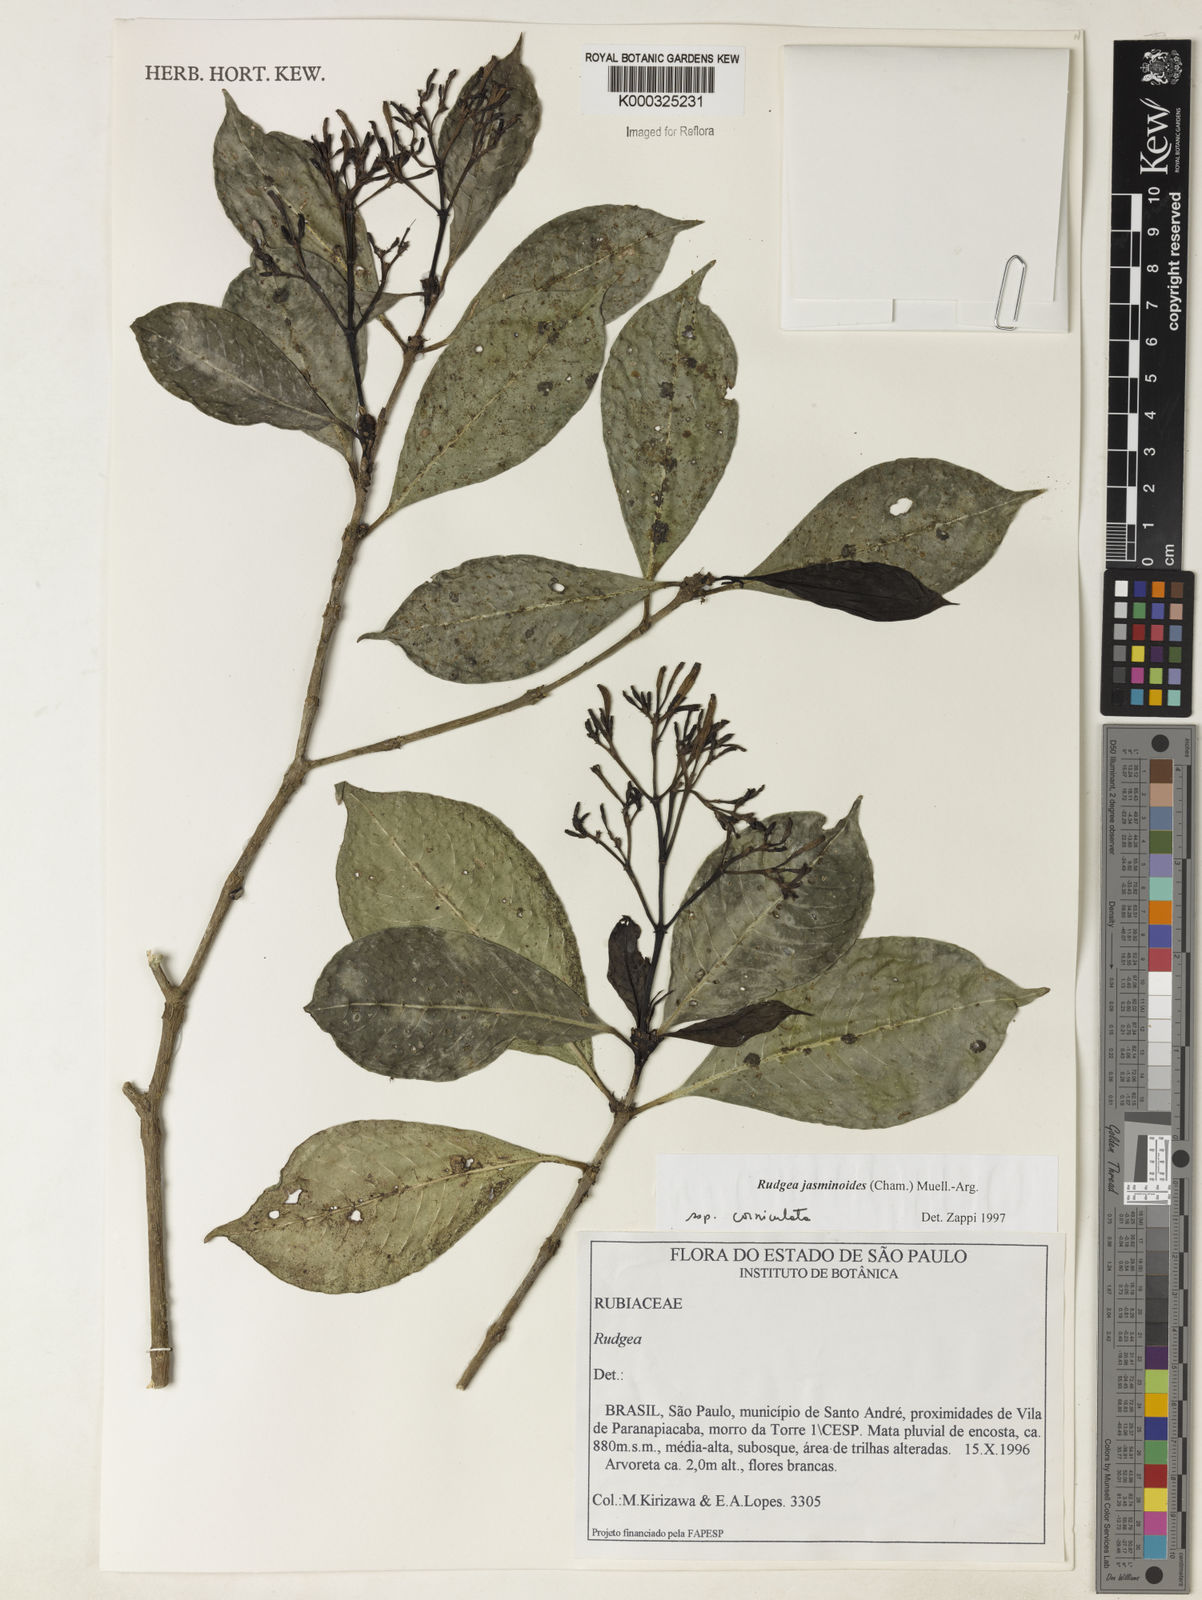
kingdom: Plantae
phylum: Tracheophyta
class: Magnoliopsida
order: Gentianales
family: Rubiaceae
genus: Rudgea
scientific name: Rudgea jasminoides
